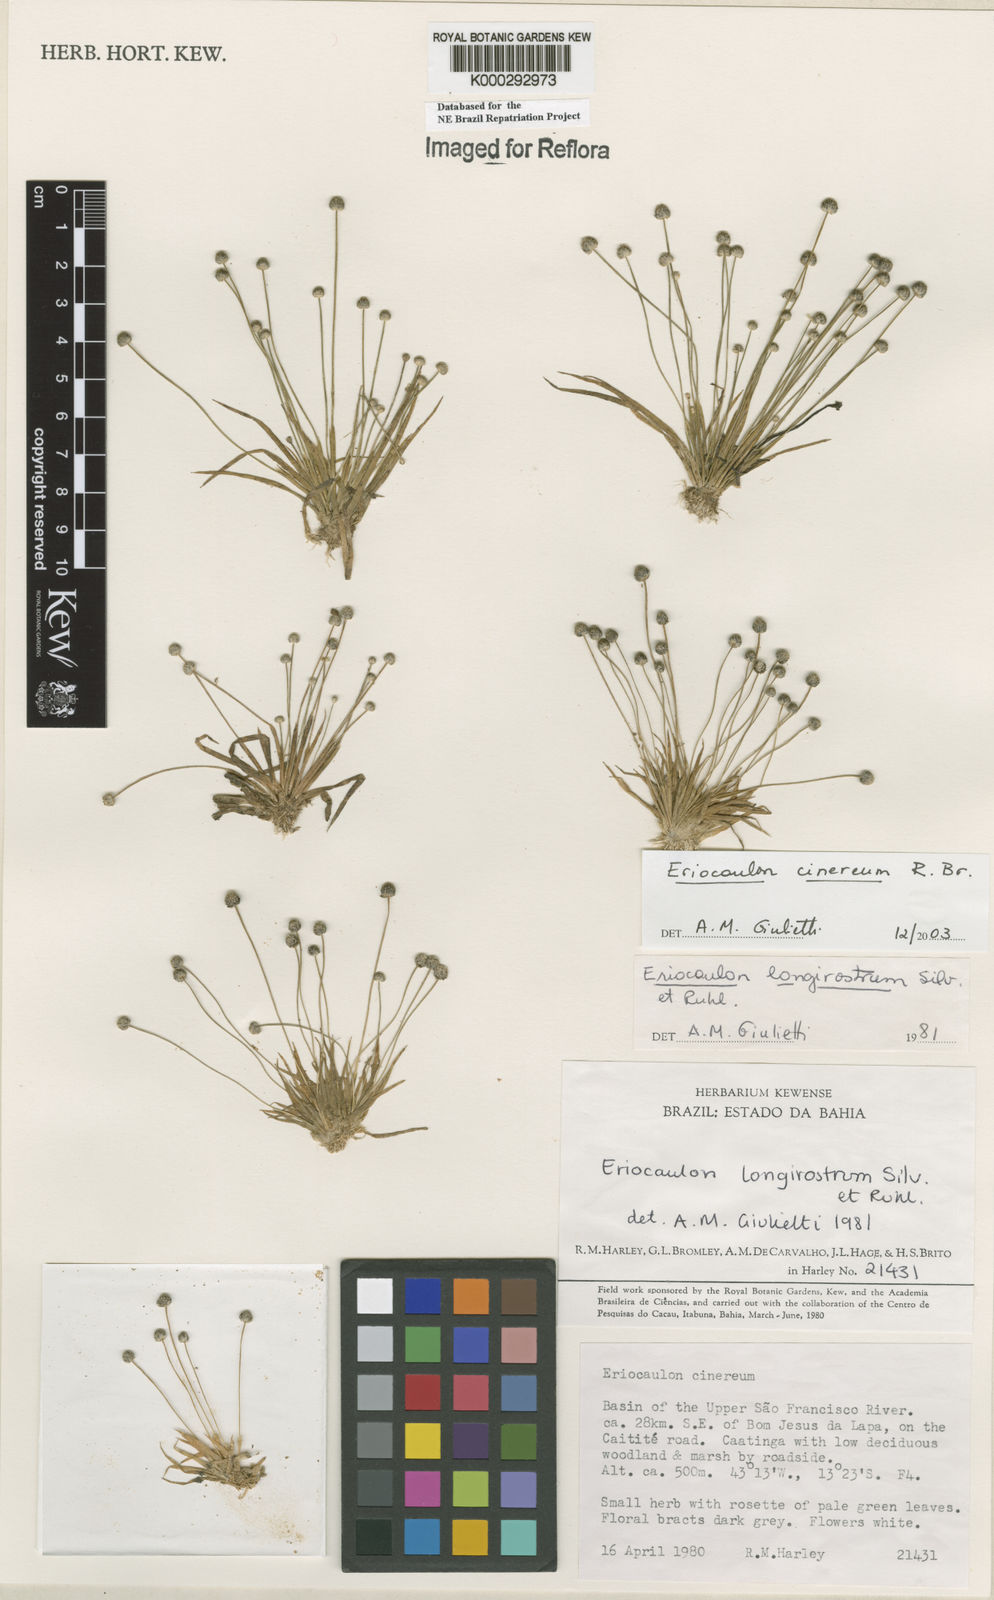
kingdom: Plantae
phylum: Tracheophyta
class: Liliopsida
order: Poales
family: Eriocaulaceae
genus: Eriocaulon
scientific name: Eriocaulon cinereum
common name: Ashy pipewort
